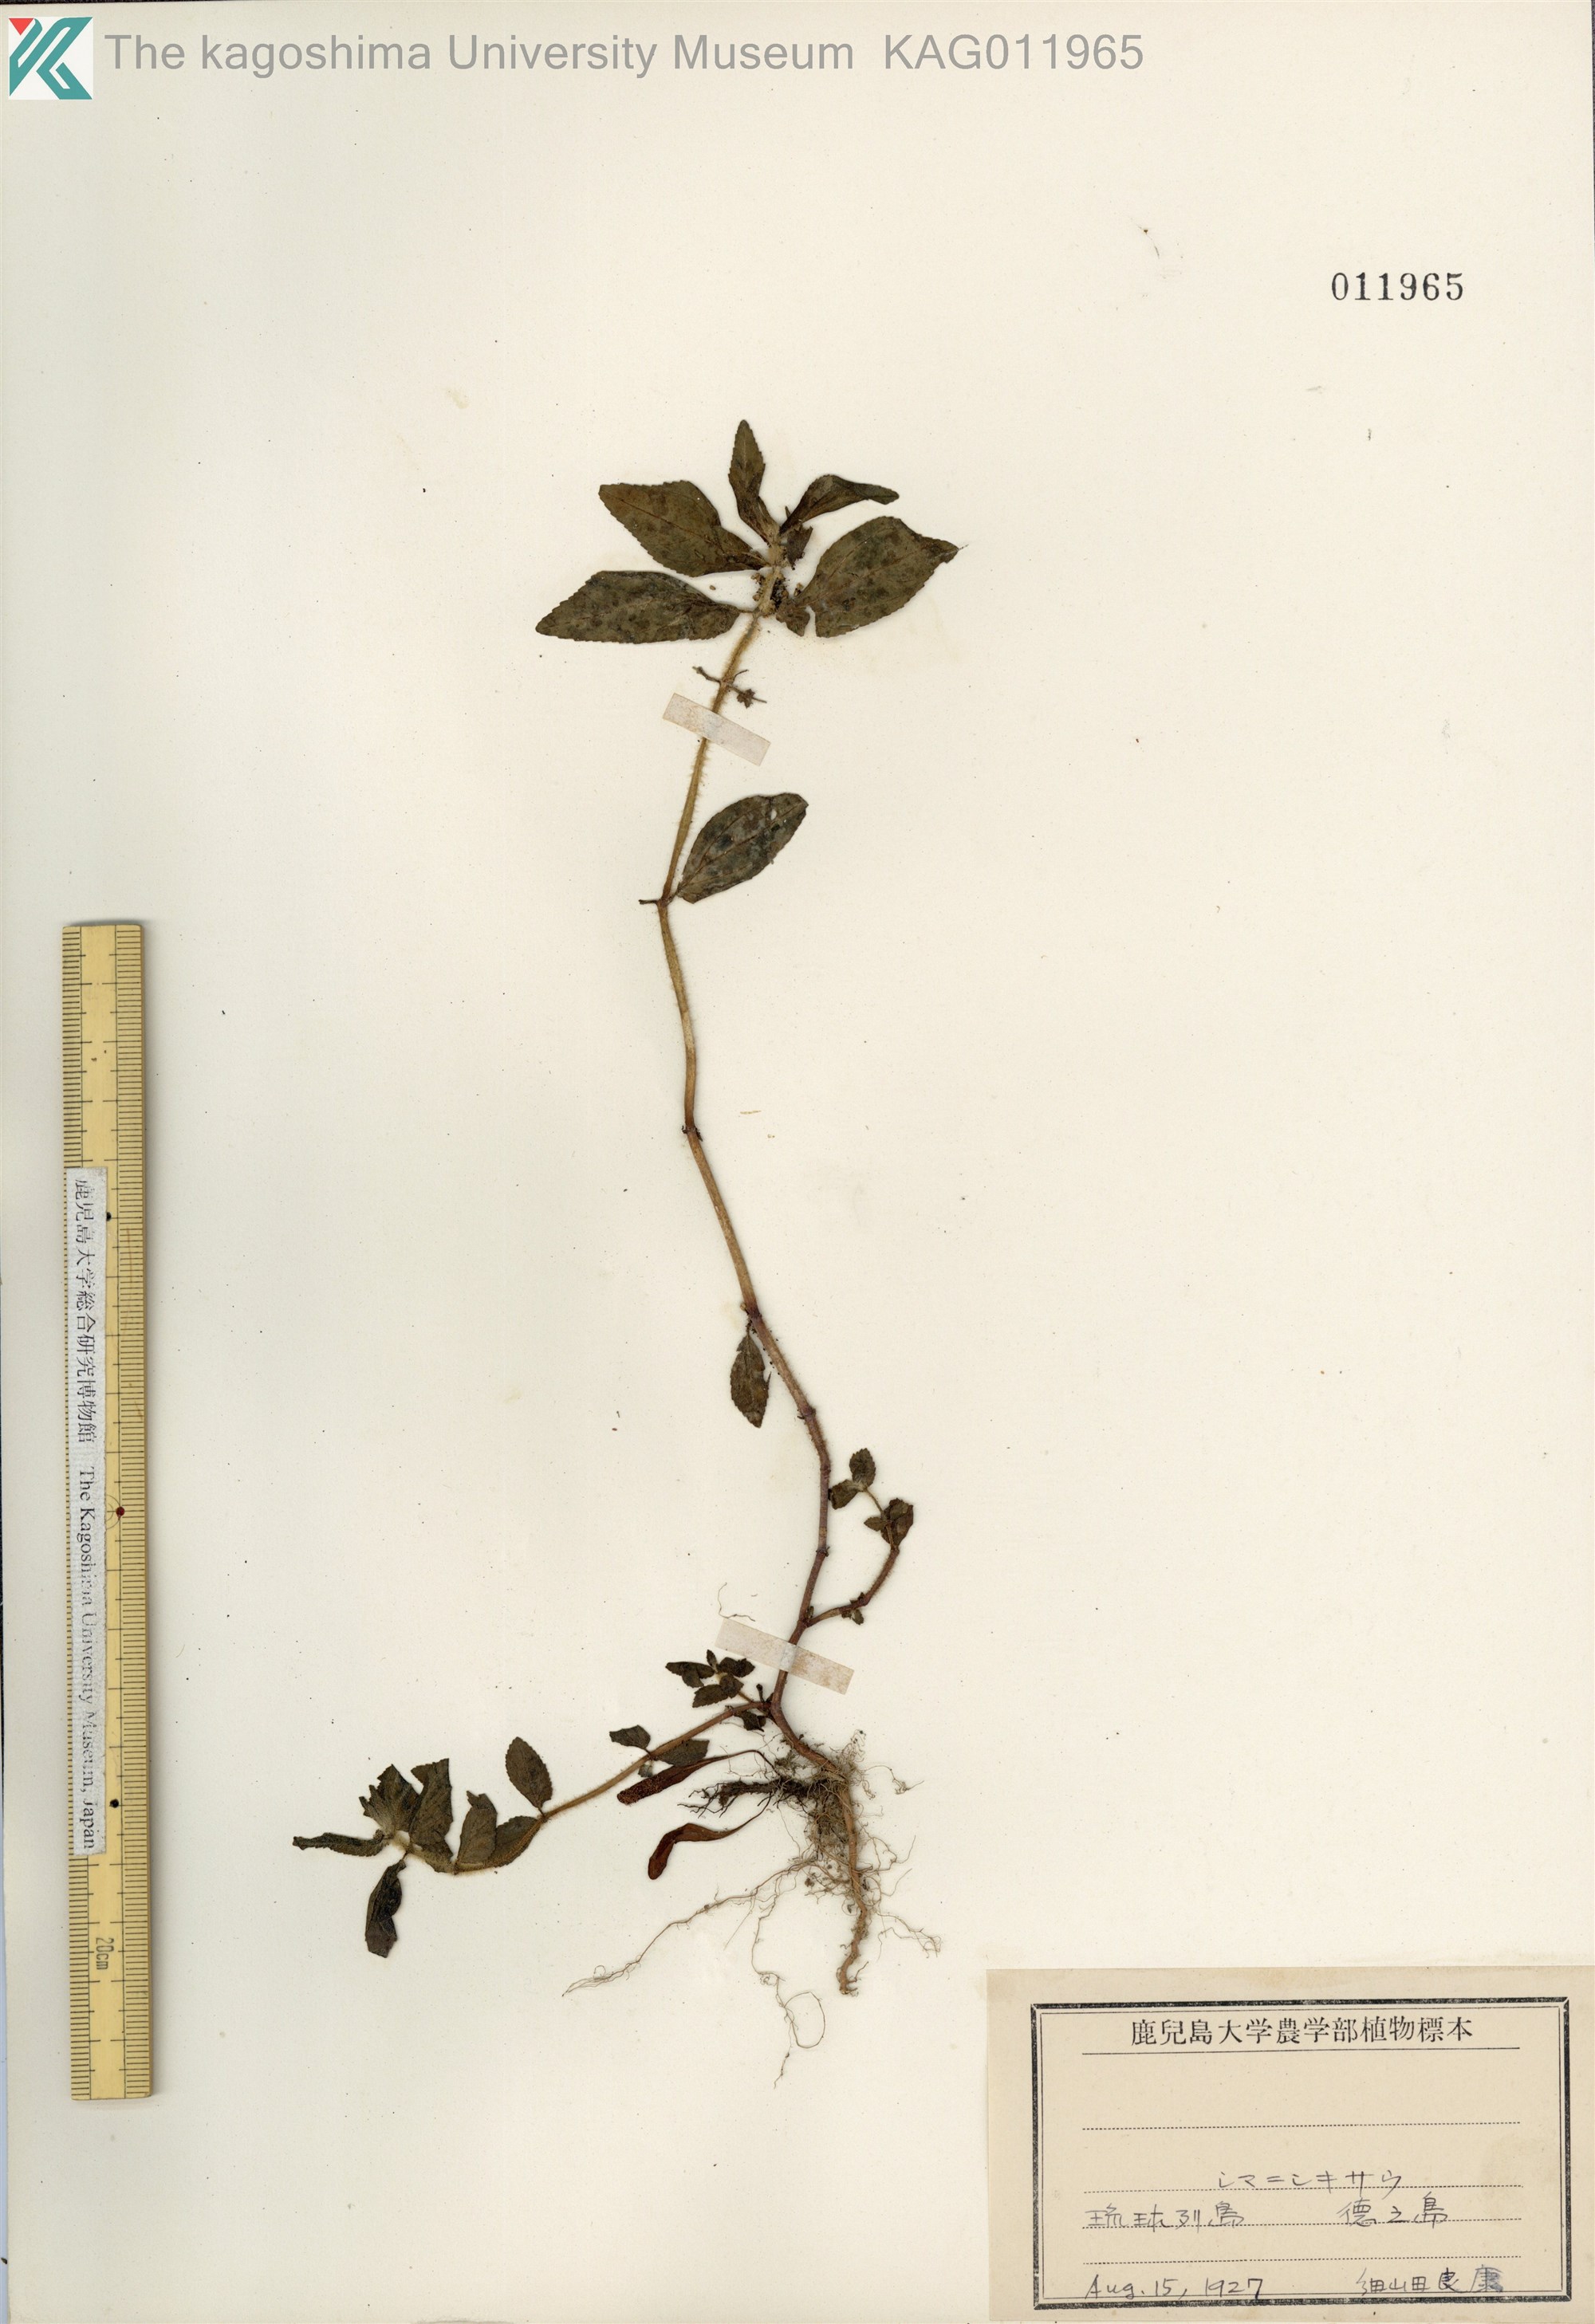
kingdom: Plantae
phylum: Tracheophyta
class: Magnoliopsida
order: Malpighiales
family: Euphorbiaceae
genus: Euphorbia
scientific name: Euphorbia hirta
